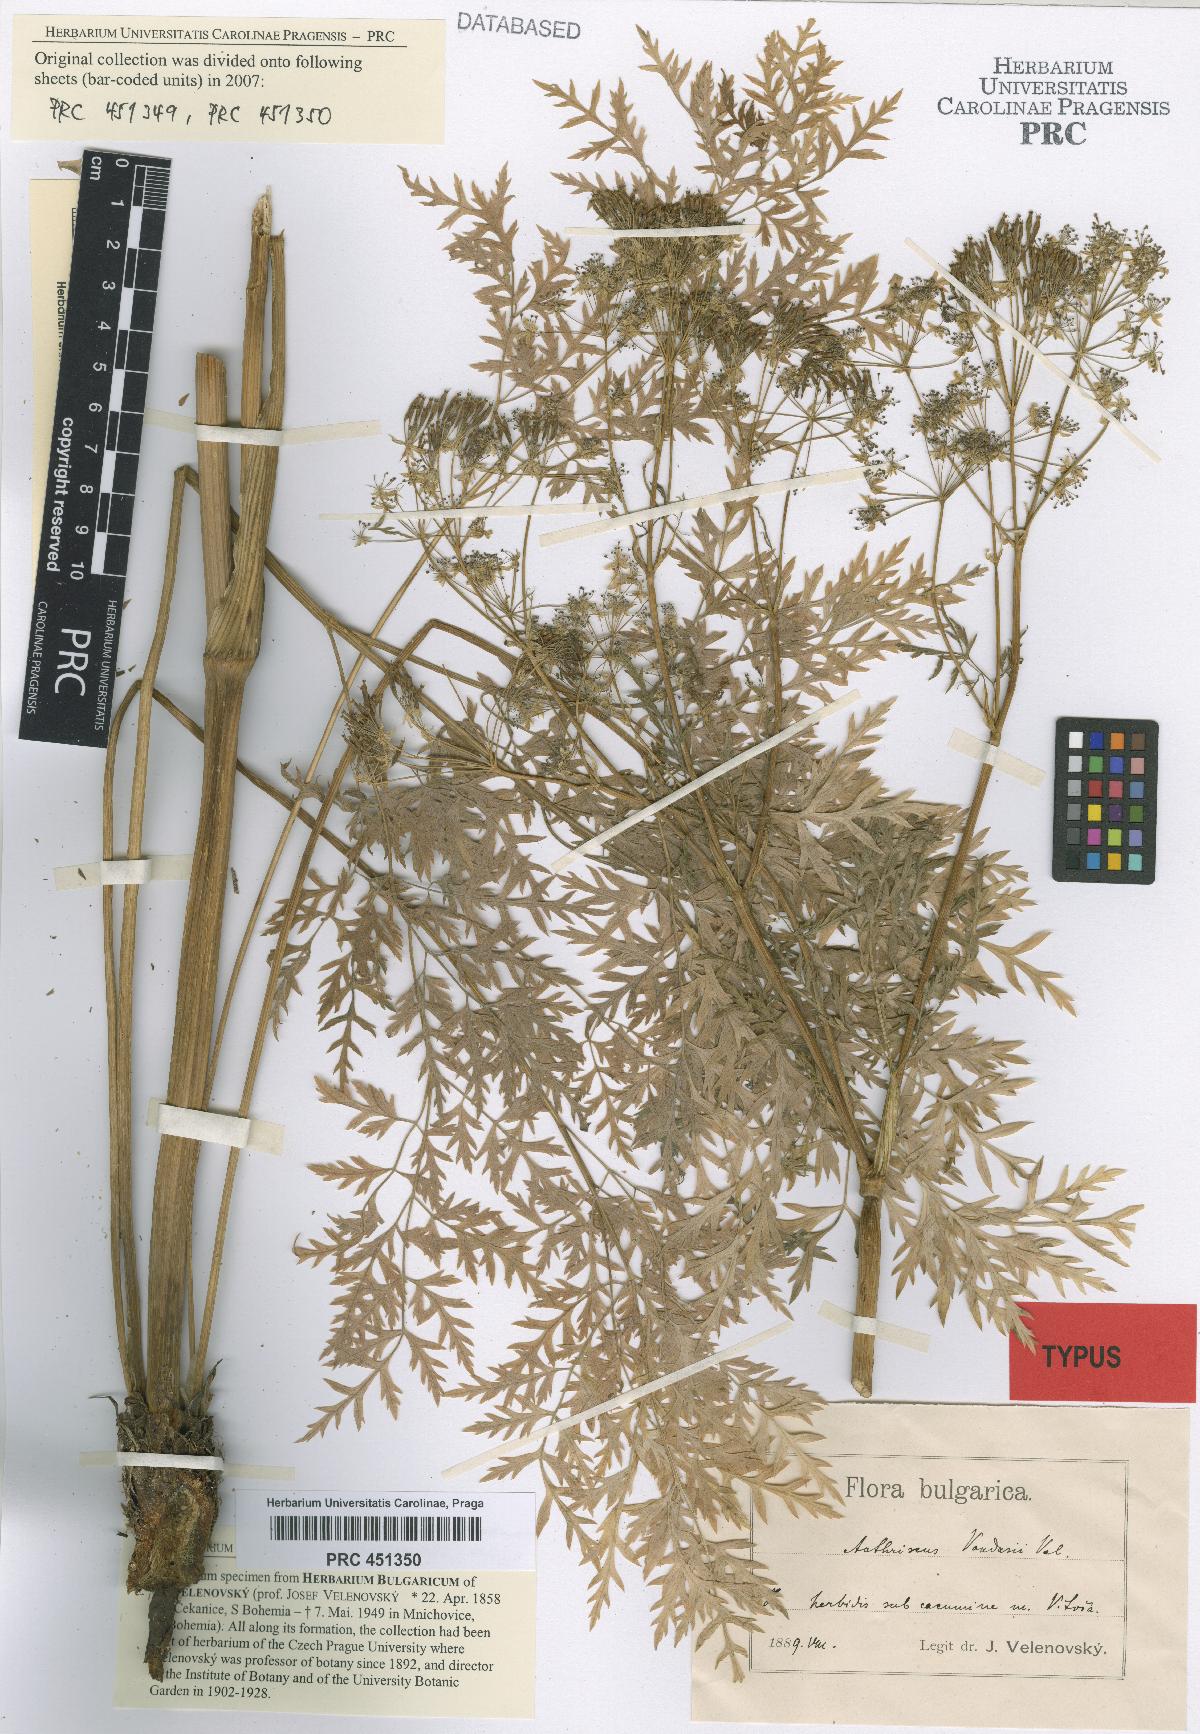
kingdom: Plantae
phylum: Tracheophyta
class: Magnoliopsida
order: Apiales
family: Apiaceae
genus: Anthriscus
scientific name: Anthriscus fumarioides
